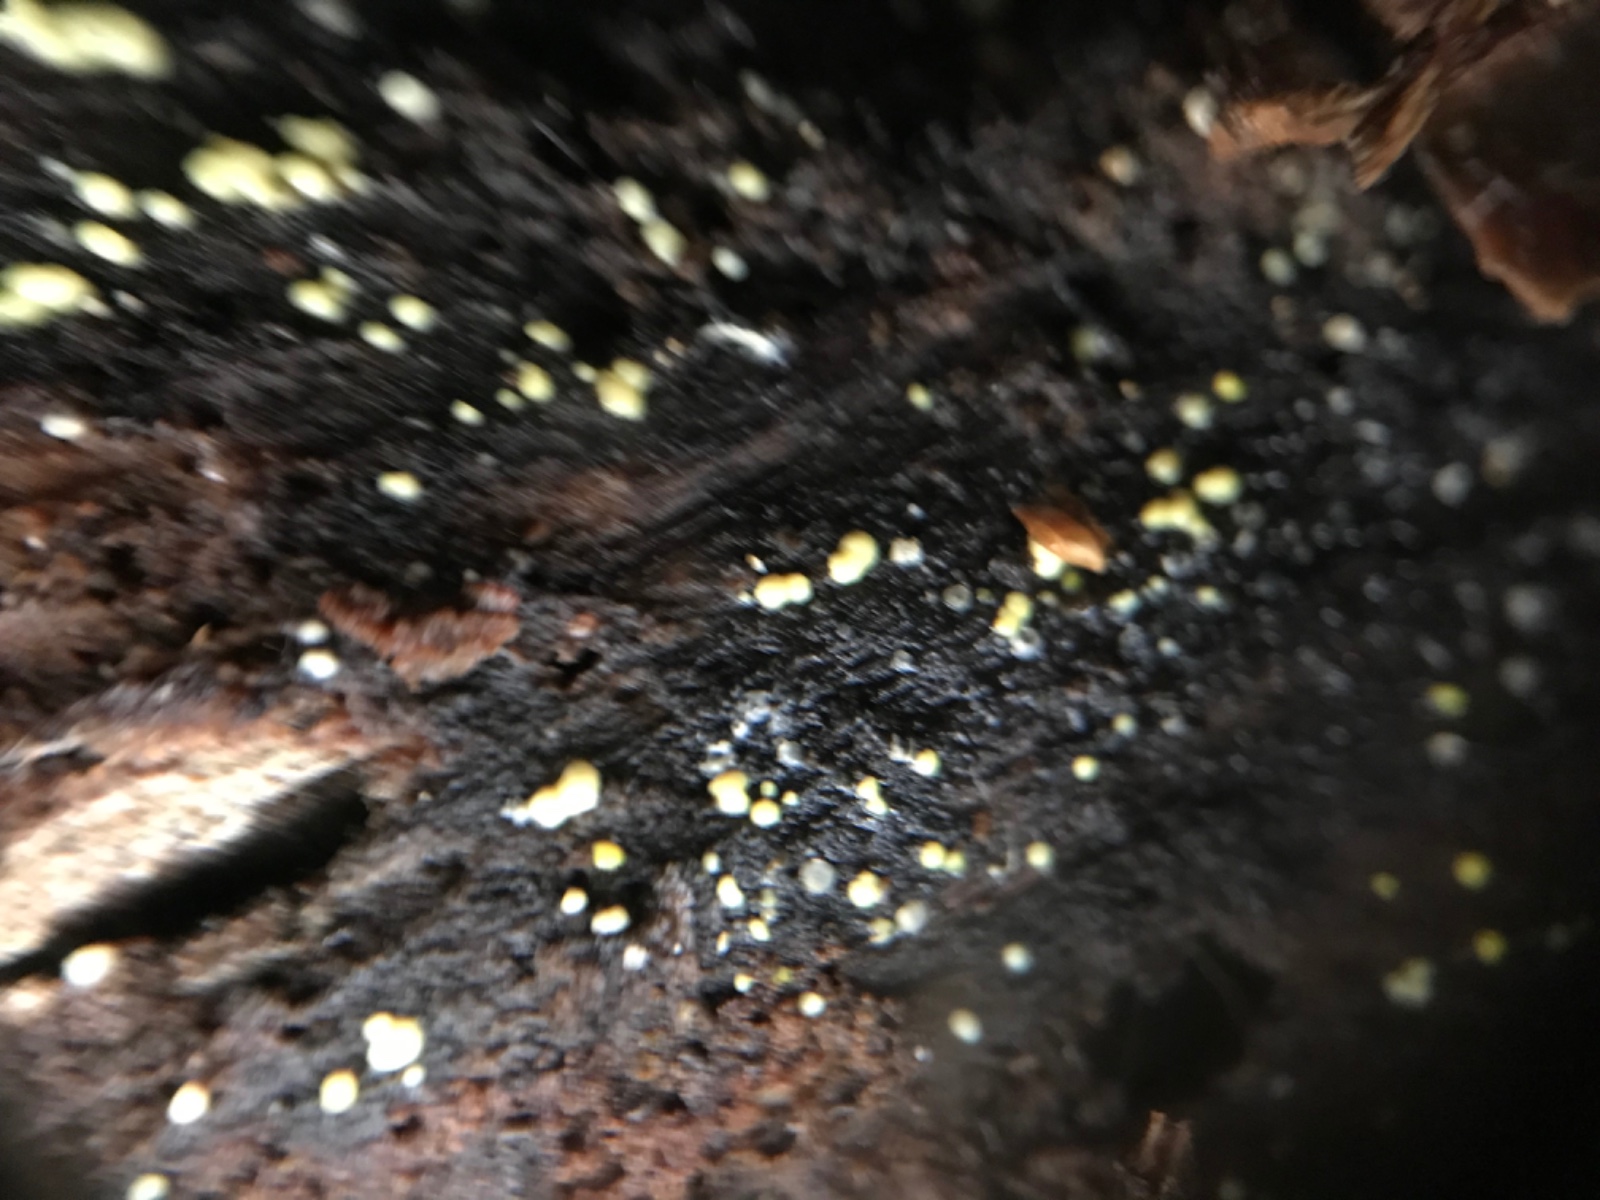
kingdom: Fungi
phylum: Ascomycota
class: Leotiomycetes
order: Helotiales
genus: Lemalis
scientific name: Lemalis aurea
